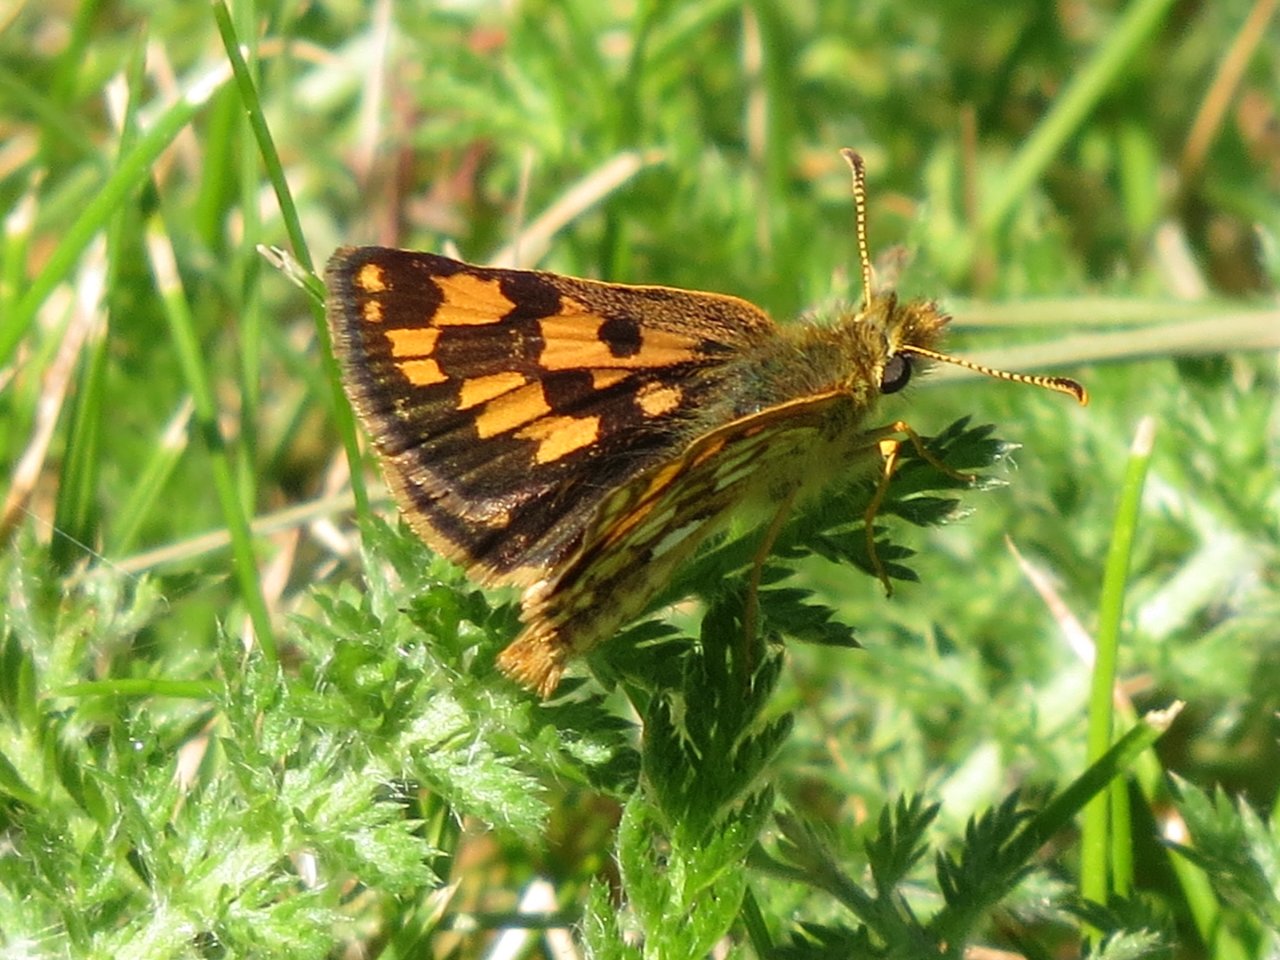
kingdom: Animalia
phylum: Arthropoda
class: Insecta
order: Lepidoptera
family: Hesperiidae
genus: Carterocephalus
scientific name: Carterocephalus palaemon
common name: Chequered Skipper
